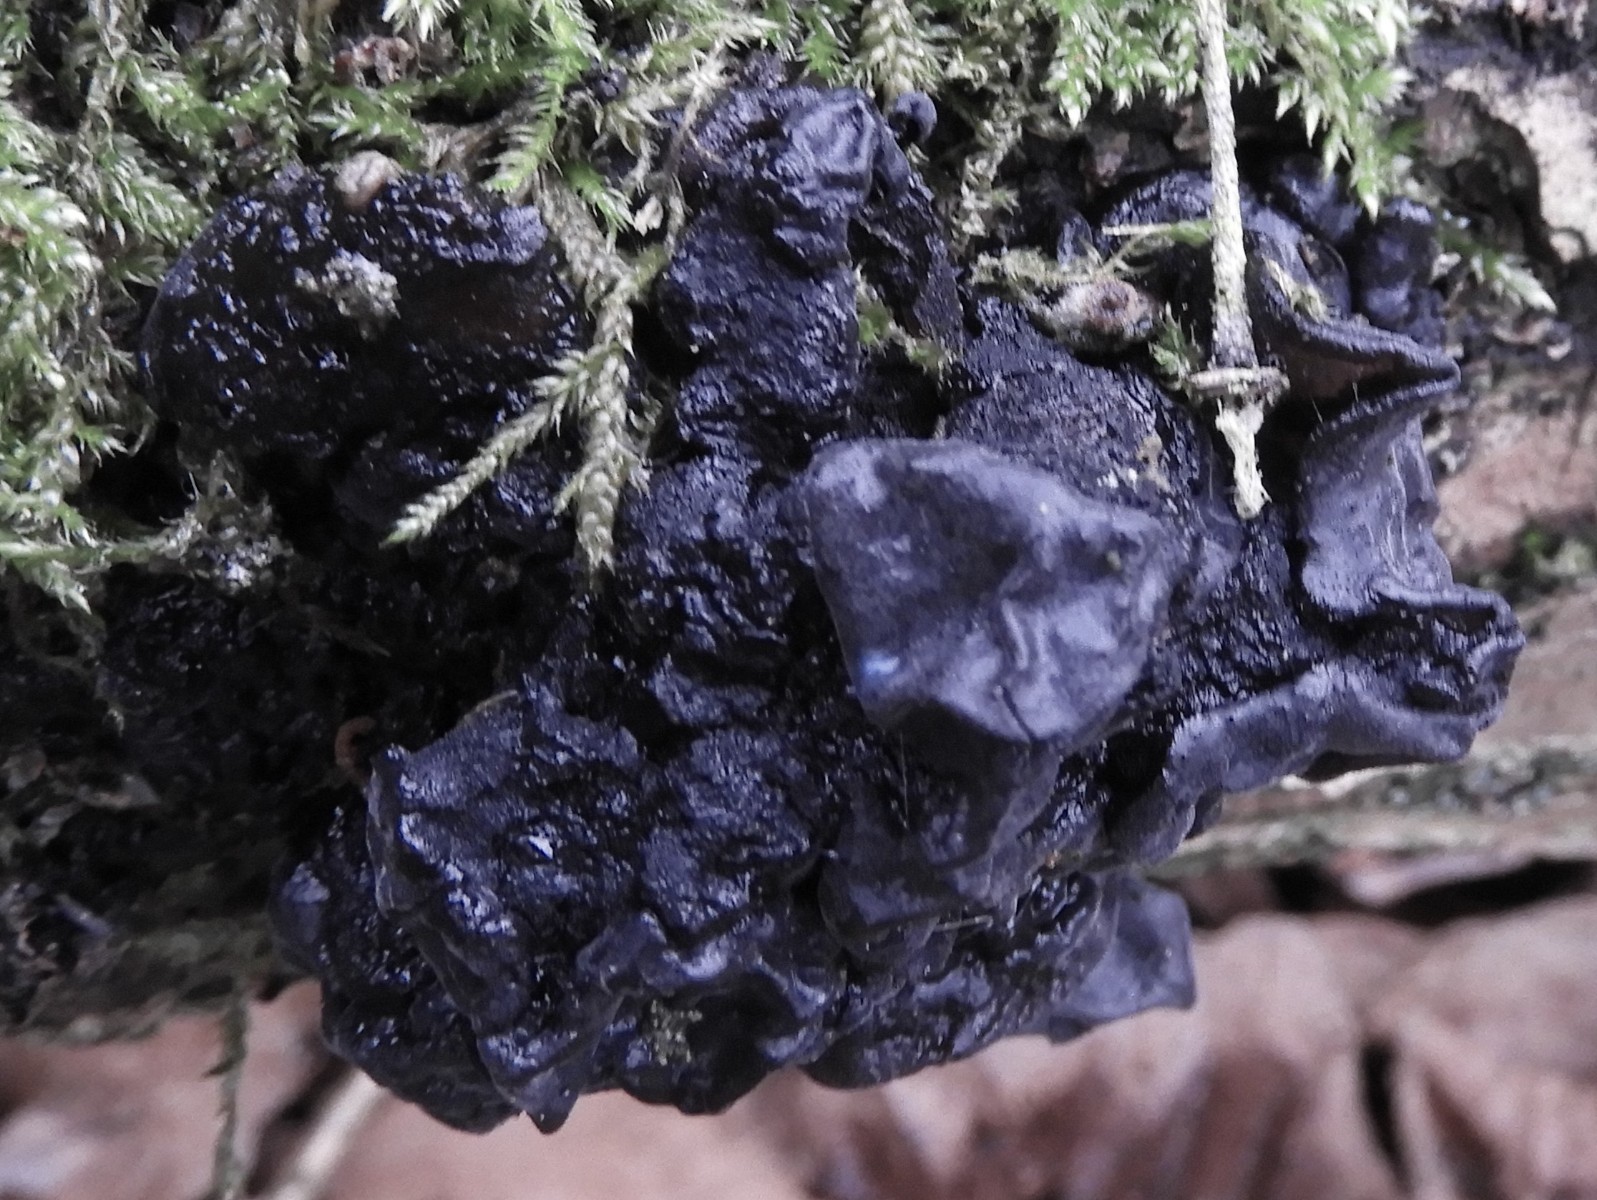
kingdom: Fungi
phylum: Basidiomycota
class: Agaricomycetes
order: Auriculariales
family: Auriculariaceae
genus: Exidia
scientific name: Exidia glandulosa
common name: ege-bævretop
